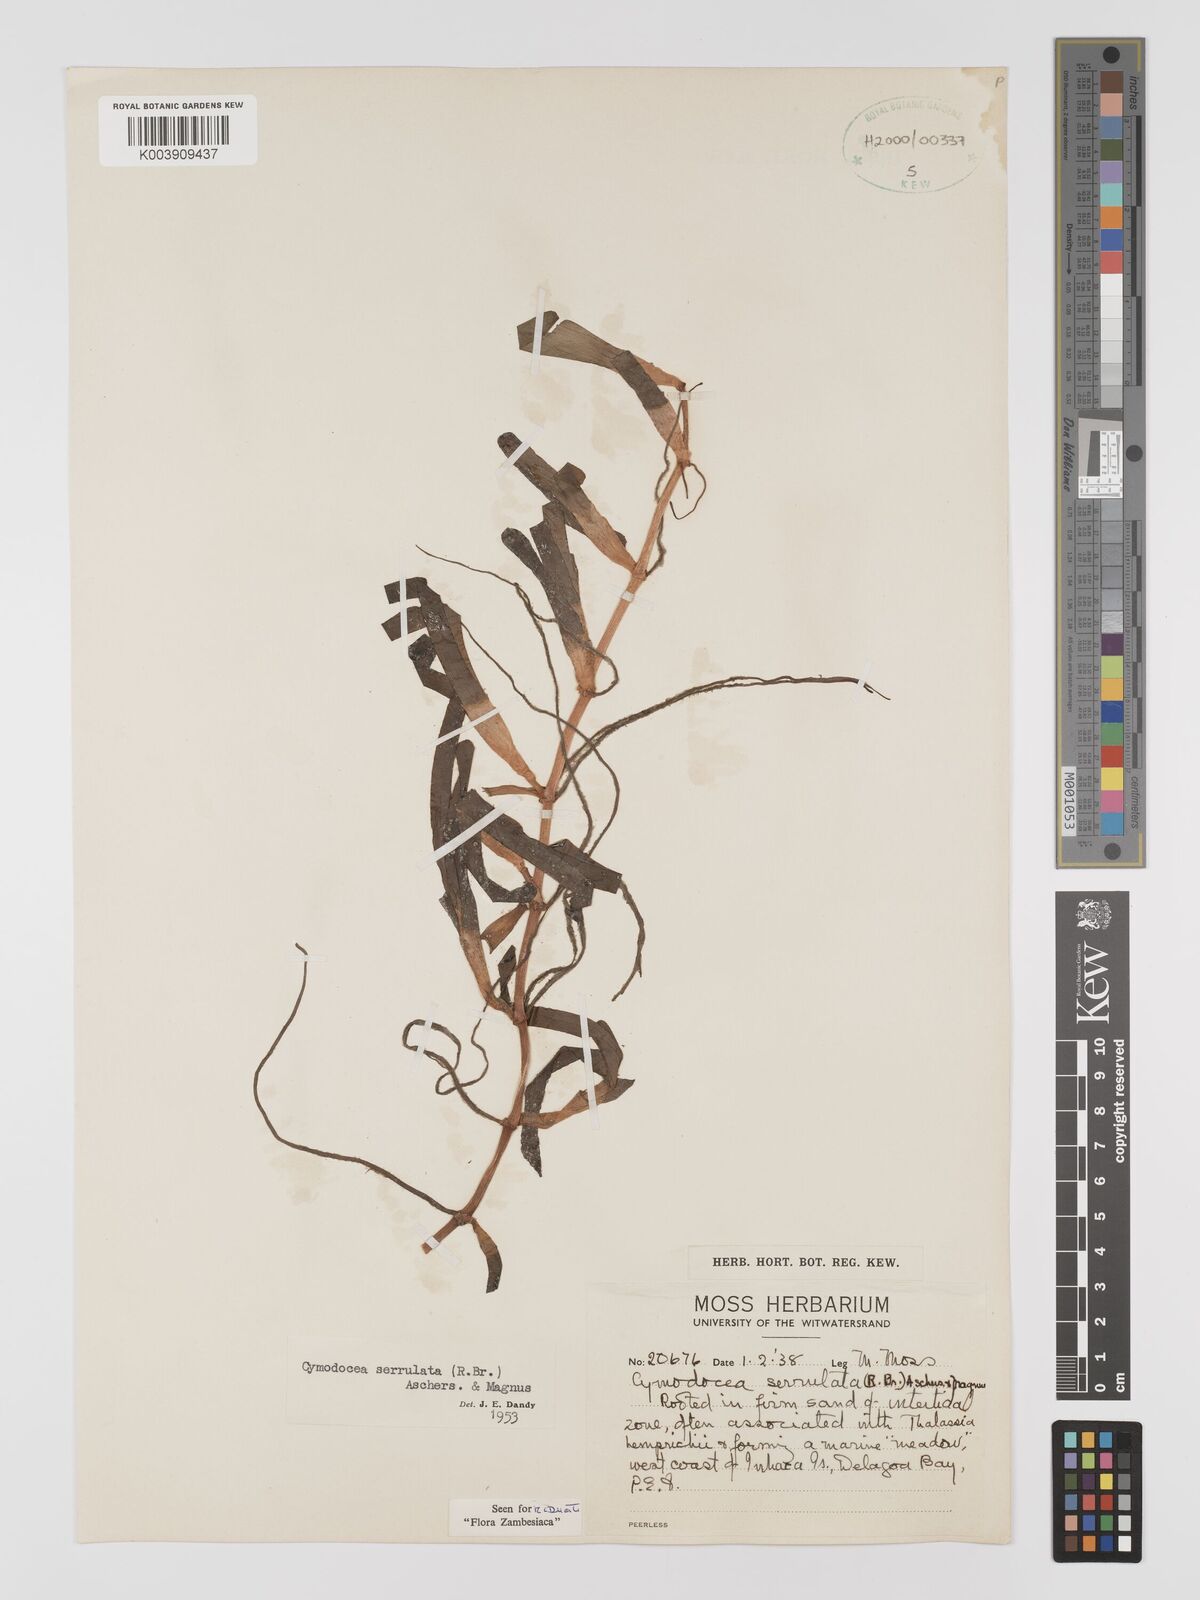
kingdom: Plantae
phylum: Tracheophyta
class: Liliopsida
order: Alismatales
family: Cymodoceaceae
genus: Oceana
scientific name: Oceana serrulata
